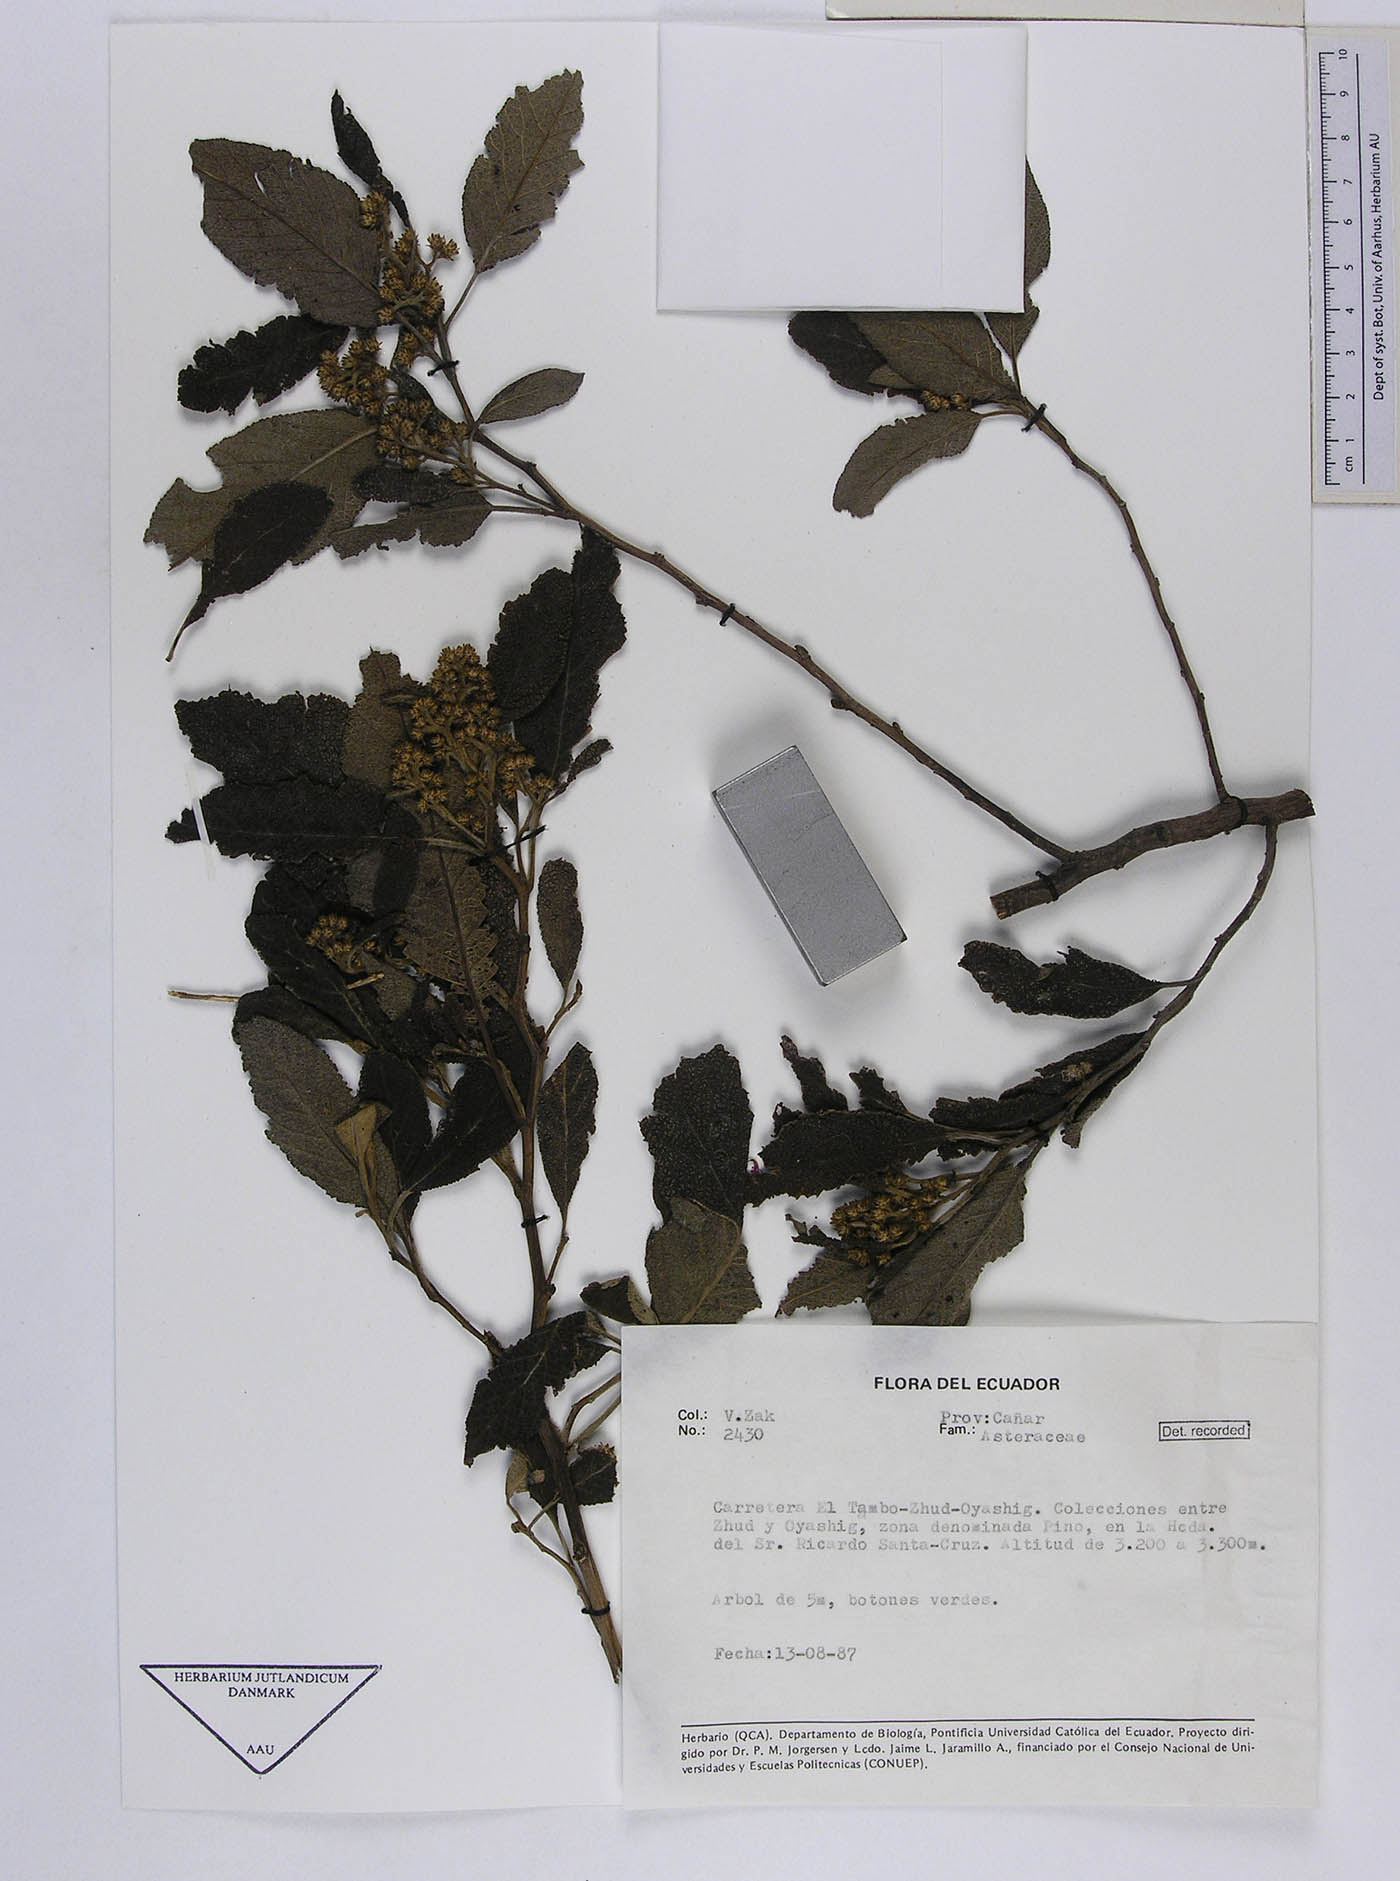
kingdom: Plantae
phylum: Tracheophyta
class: Magnoliopsida
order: Asterales
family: Asteraceae
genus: Critoniopsis
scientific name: Critoniopsis huairacajana
